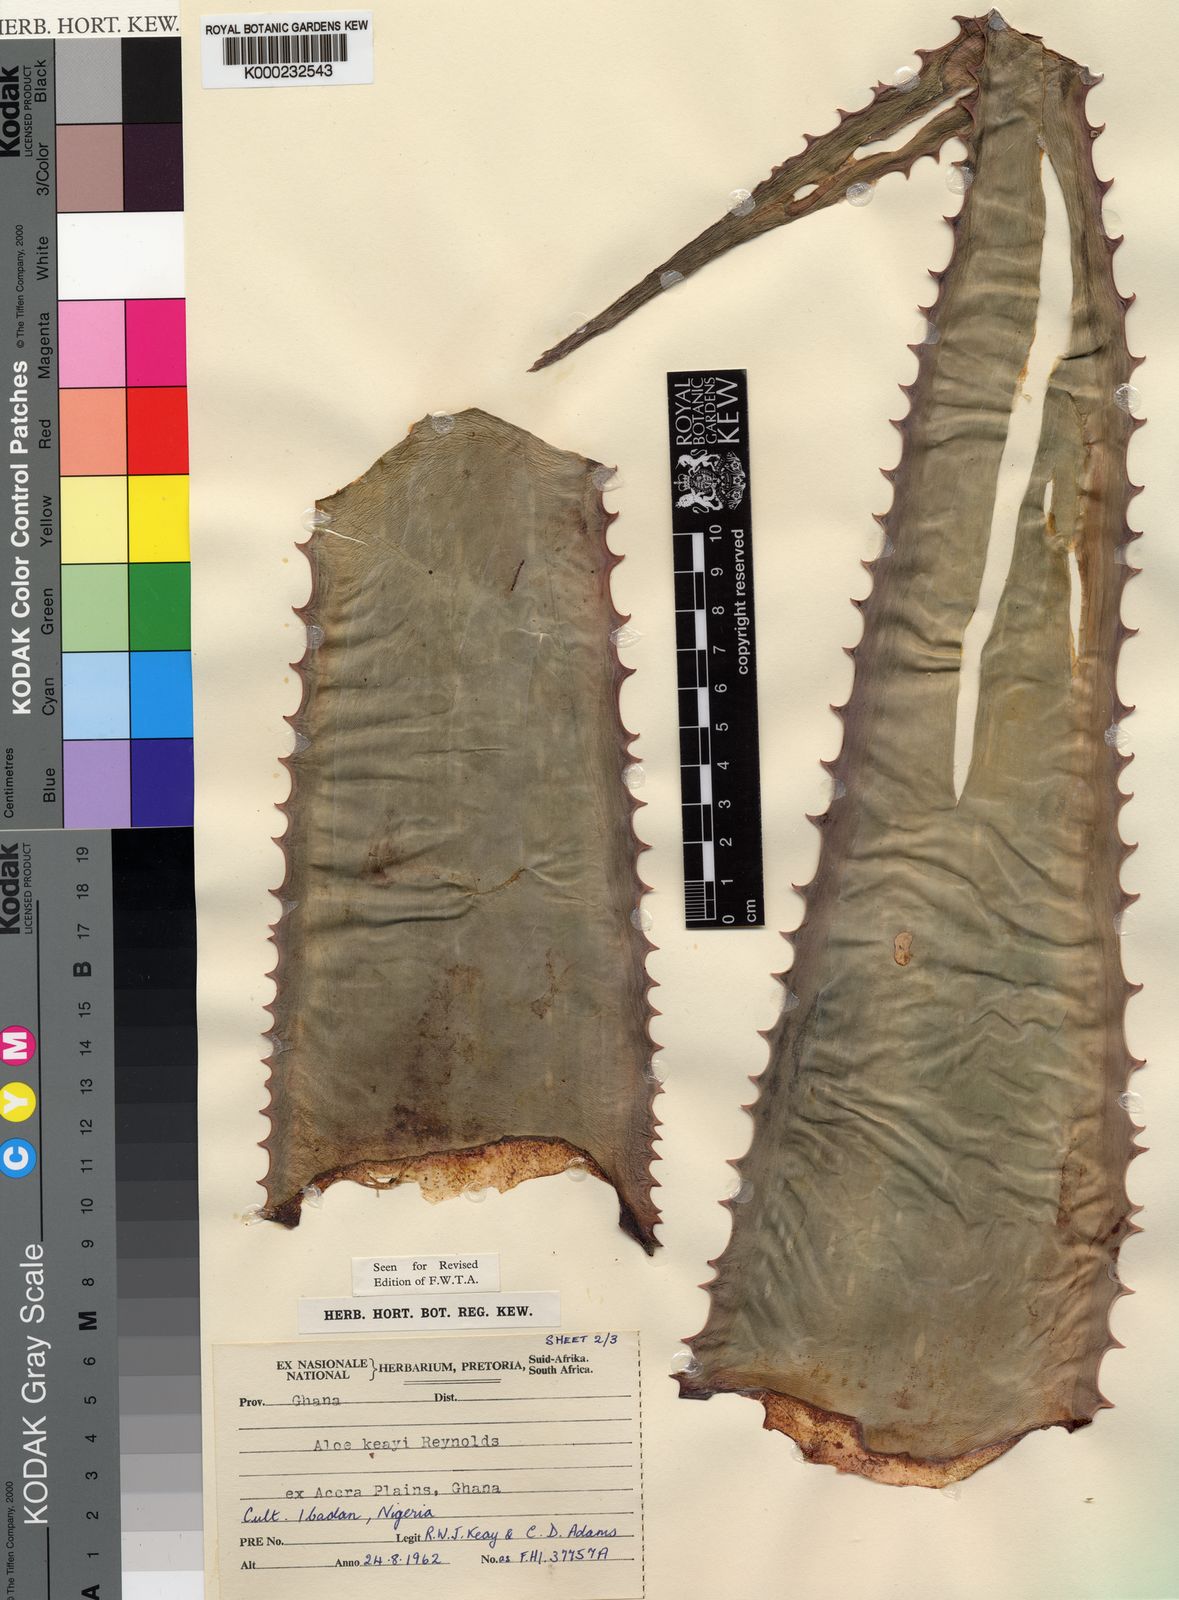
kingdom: Plantae
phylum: Tracheophyta
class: Liliopsida
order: Asparagales
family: Asphodelaceae
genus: Aloe
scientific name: Aloe keayi
